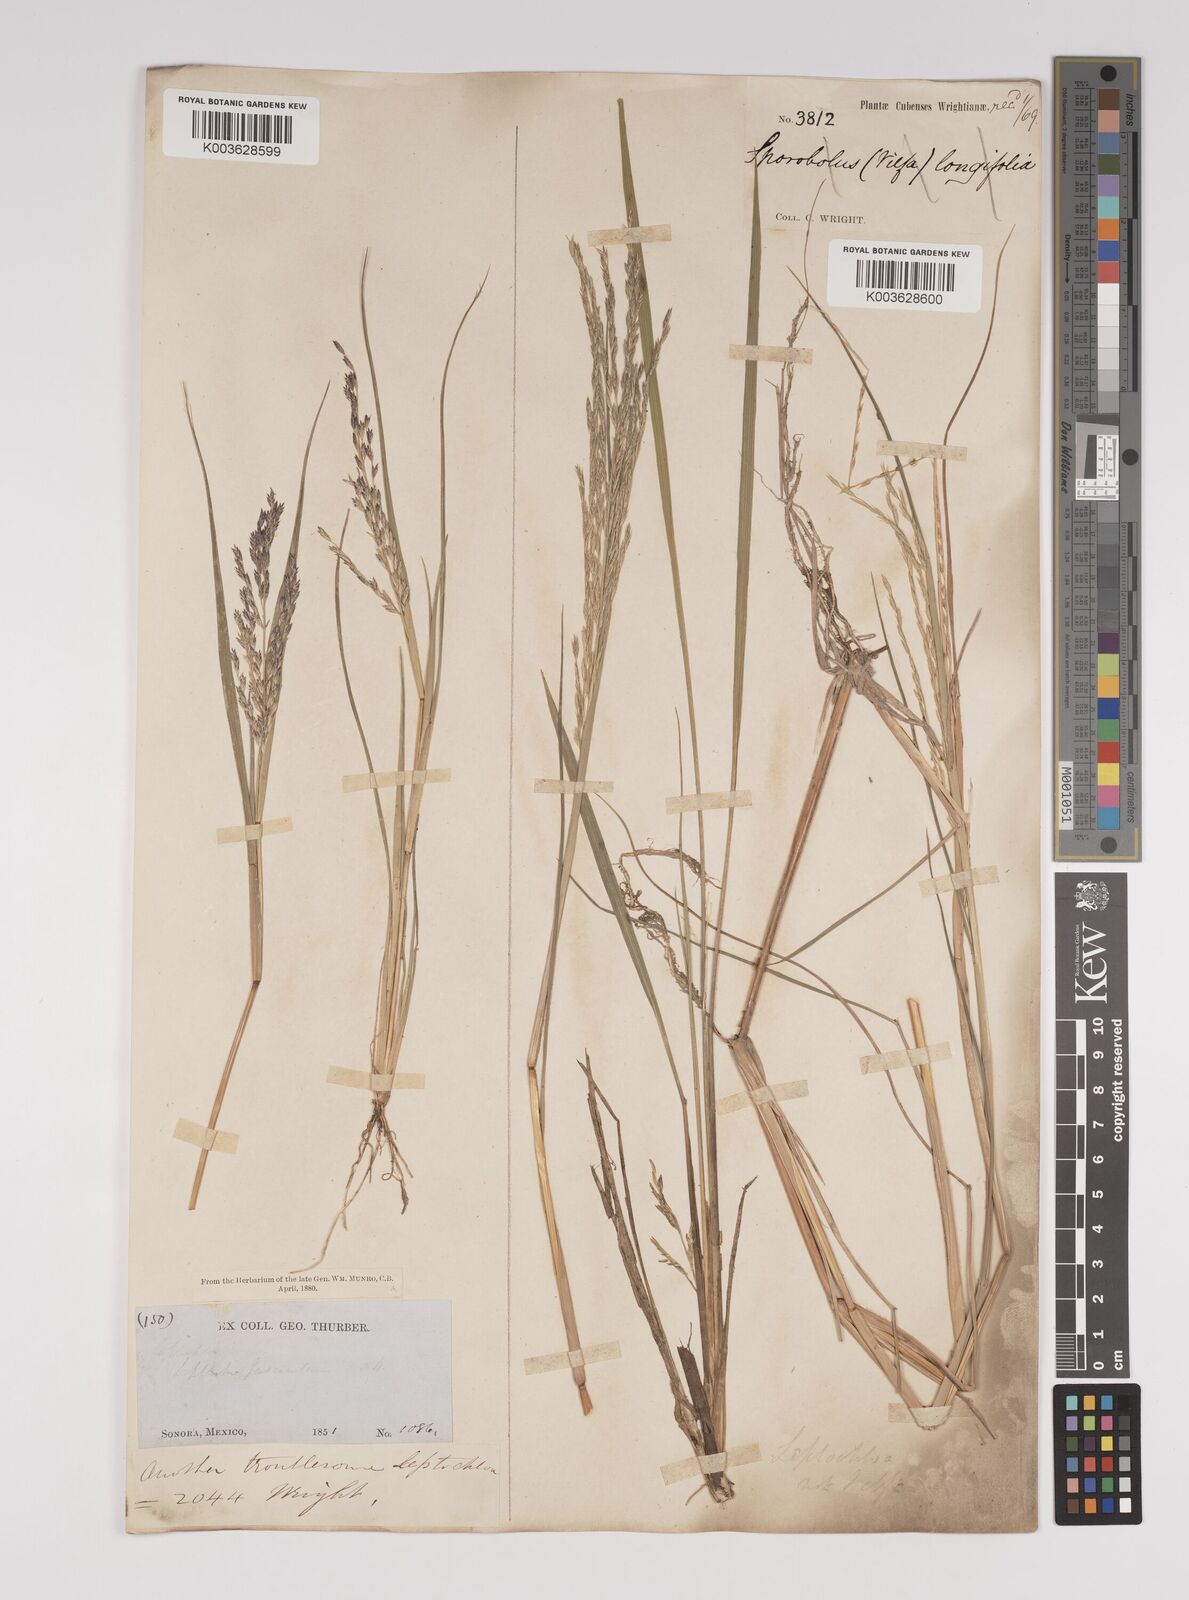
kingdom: Plantae
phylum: Tracheophyta
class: Liliopsida
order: Poales
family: Poaceae
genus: Diplachne
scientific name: Diplachne fusca
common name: Brown beetle grass
